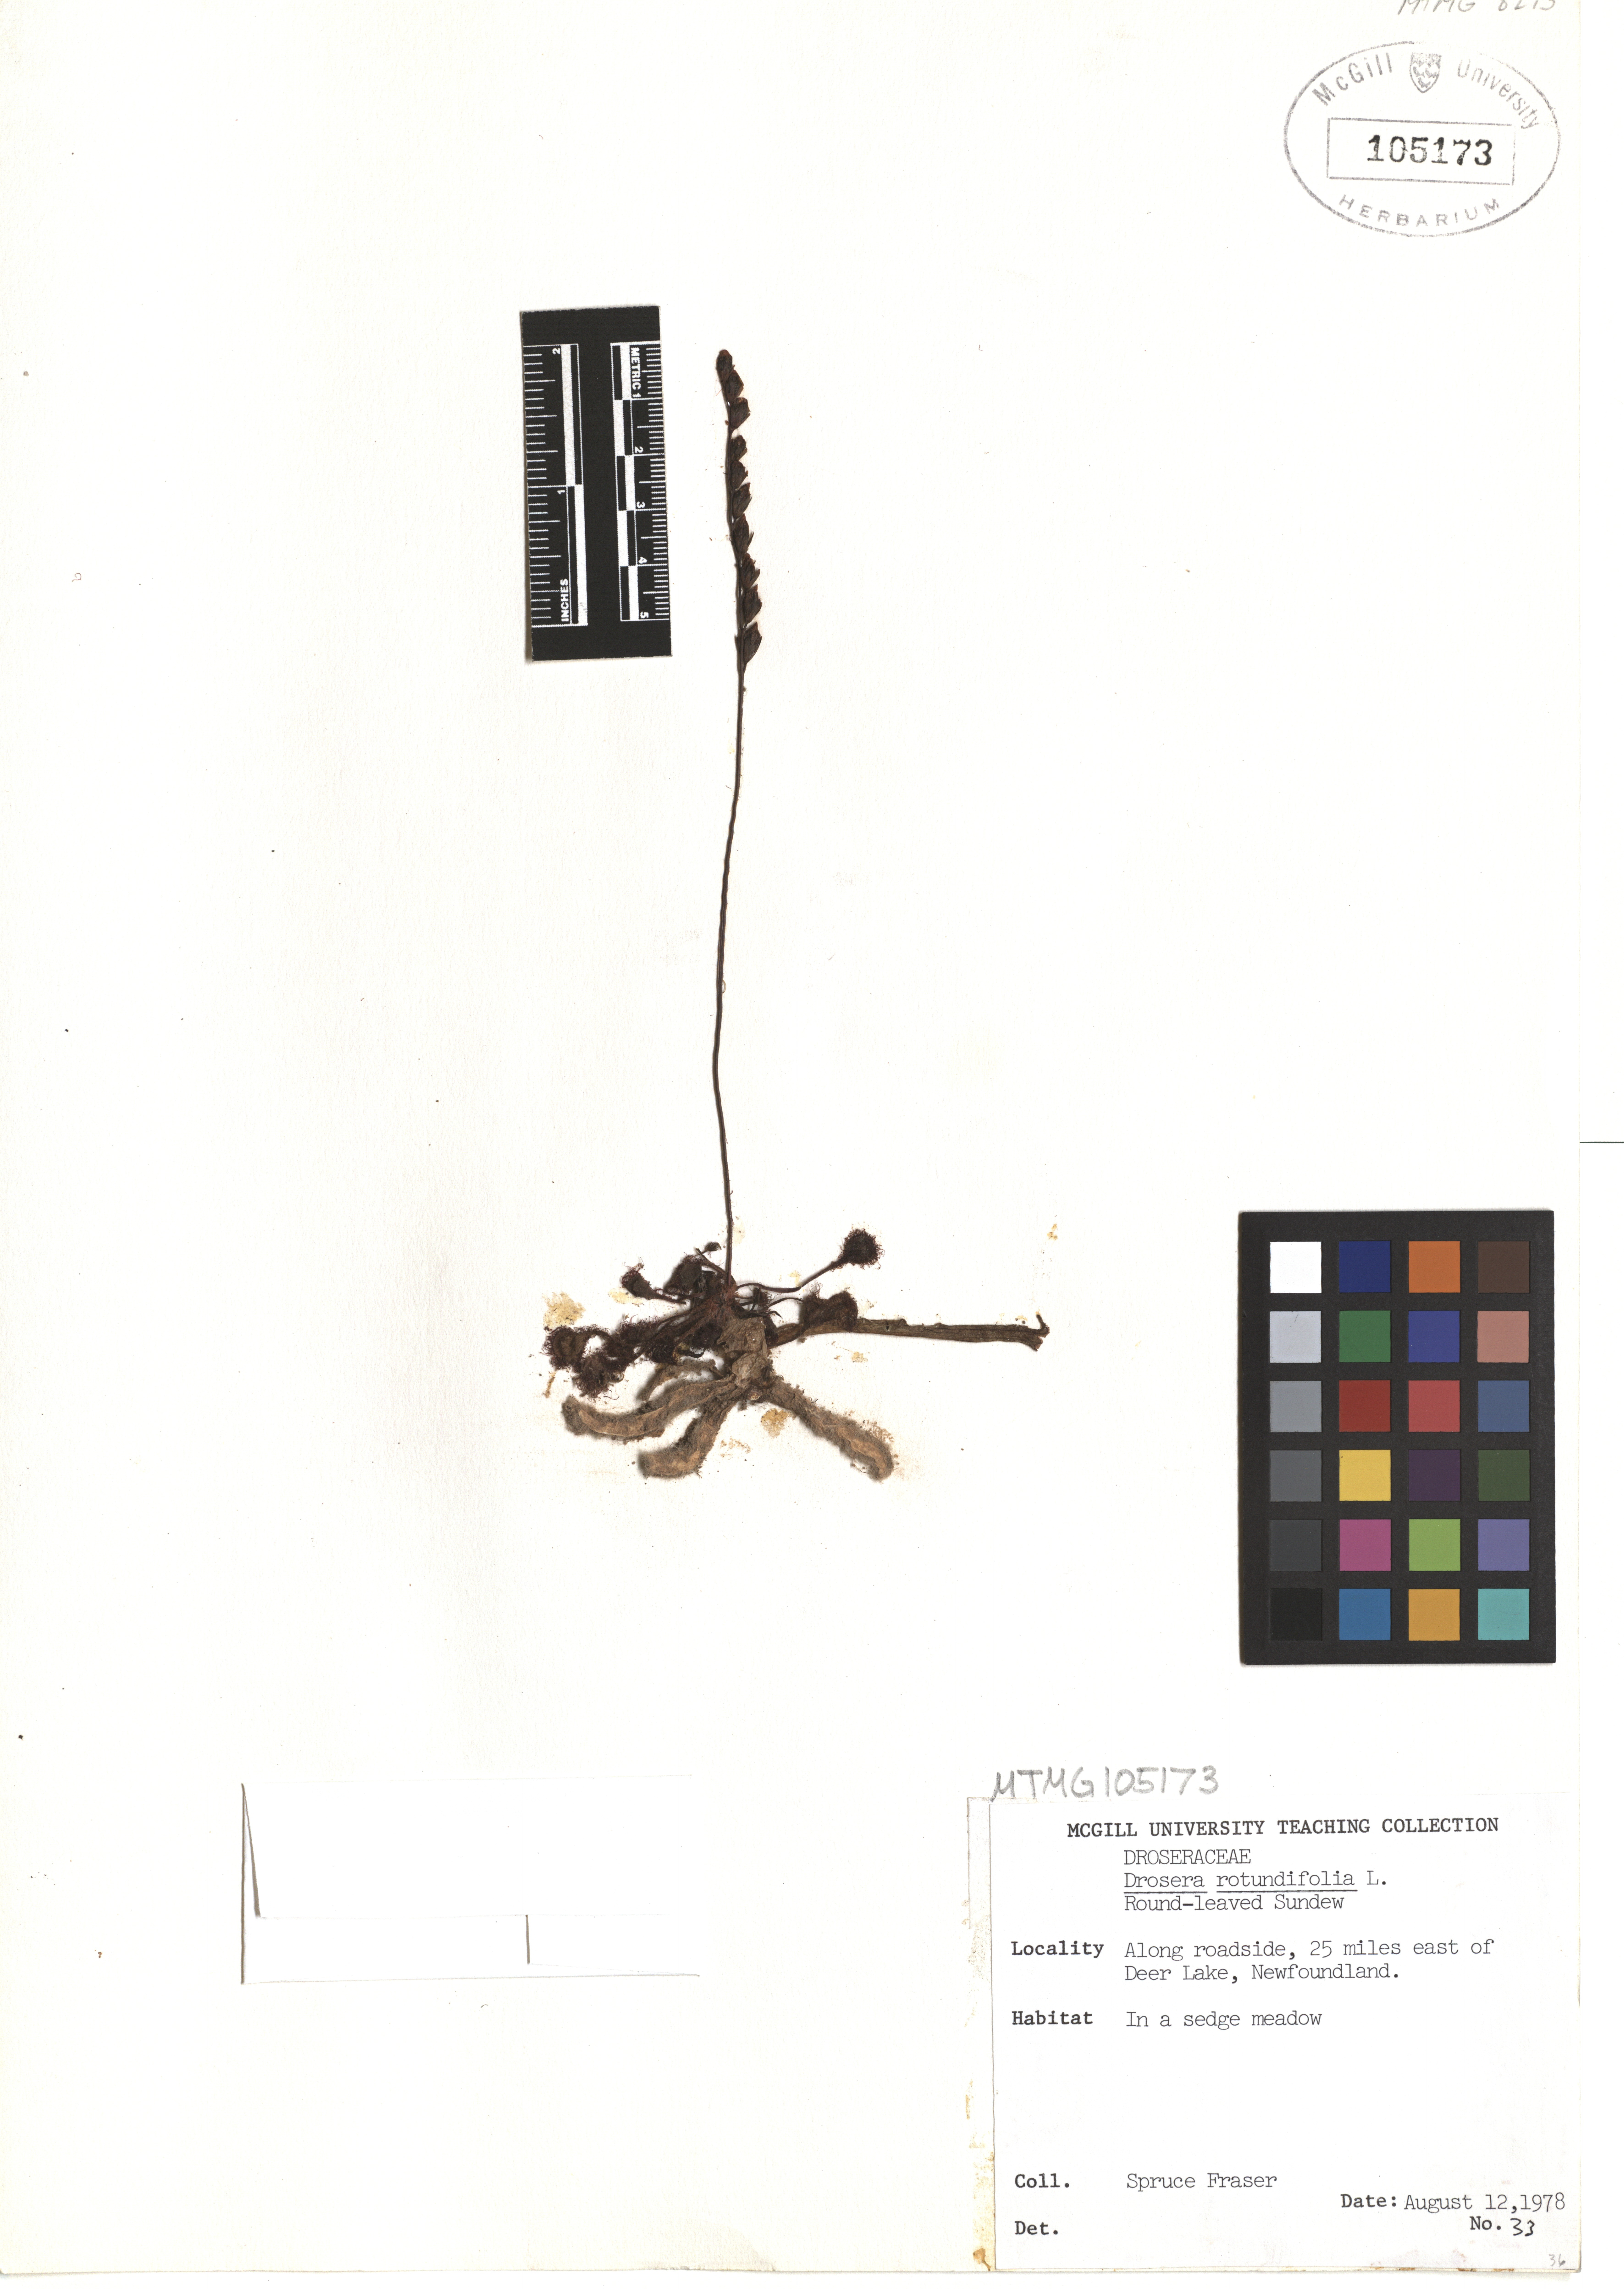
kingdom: Plantae
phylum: Tracheophyta
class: Magnoliopsida
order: Caryophyllales
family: Droseraceae
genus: Drosera
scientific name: Drosera rotundifolia
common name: Round-leaved sundew
